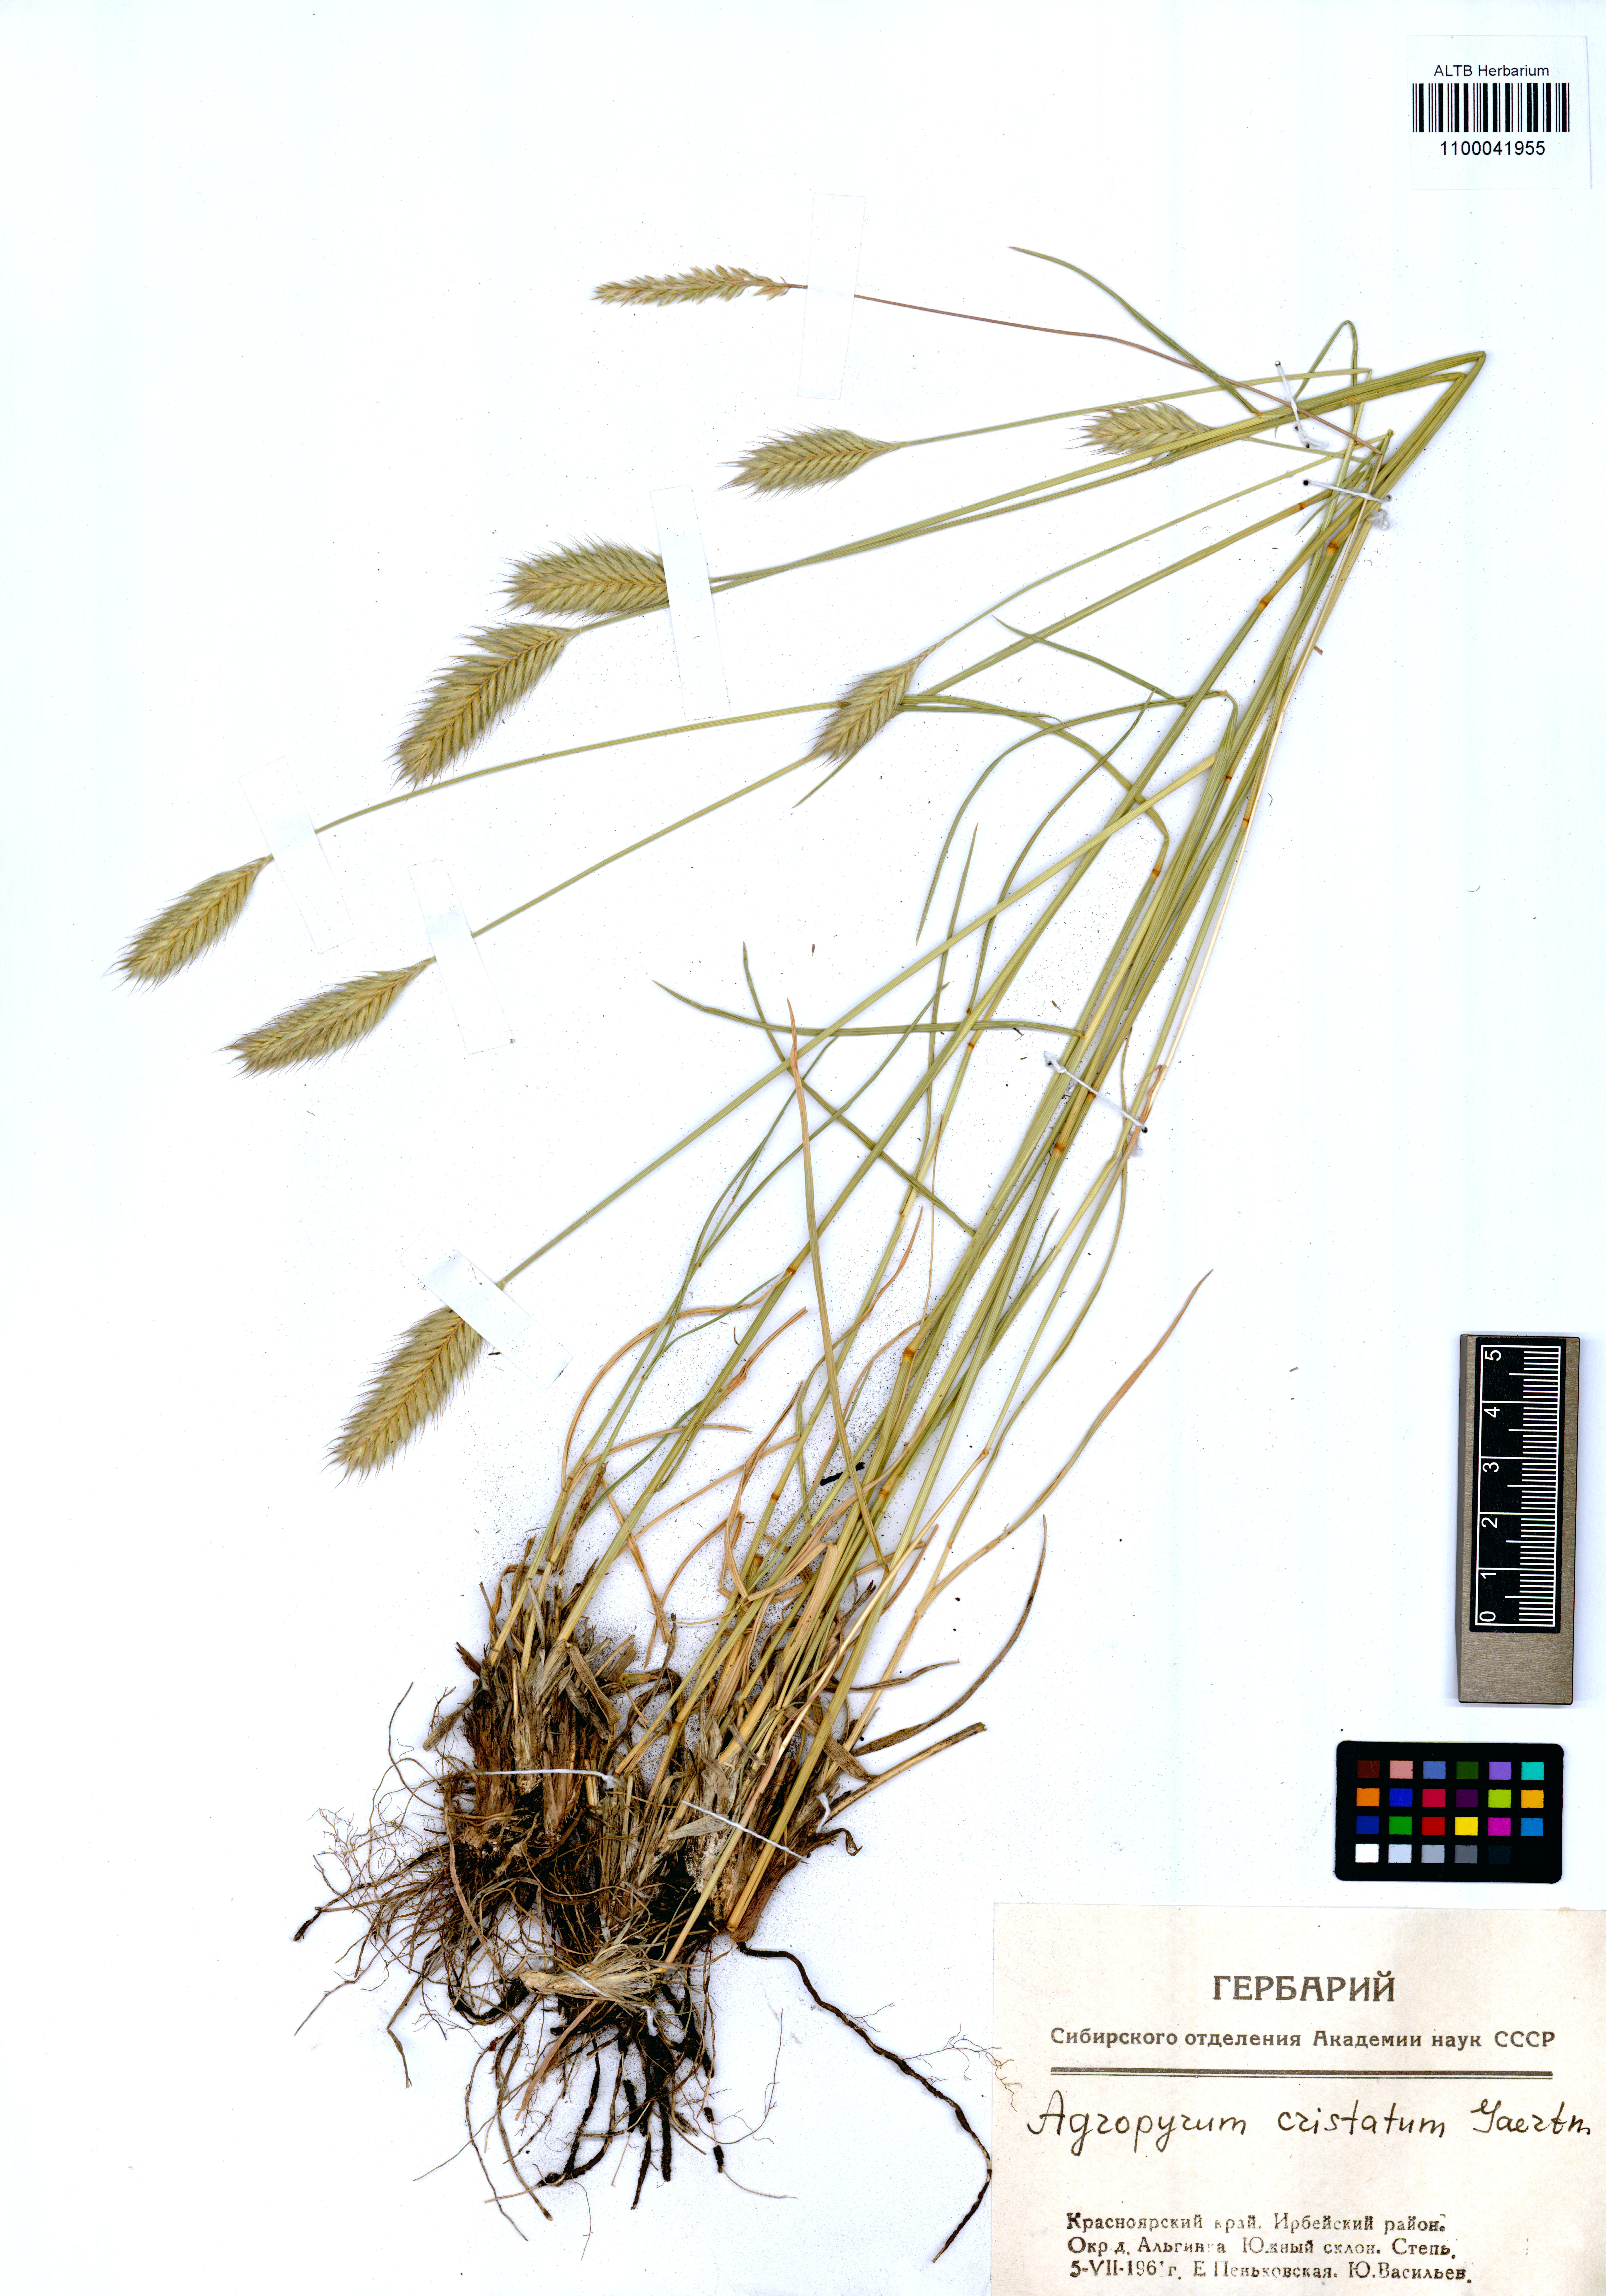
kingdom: Plantae
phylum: Tracheophyta
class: Liliopsida
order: Poales
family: Poaceae
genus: Agropyron
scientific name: Agropyron cristatum
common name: Crested wheatgrass
